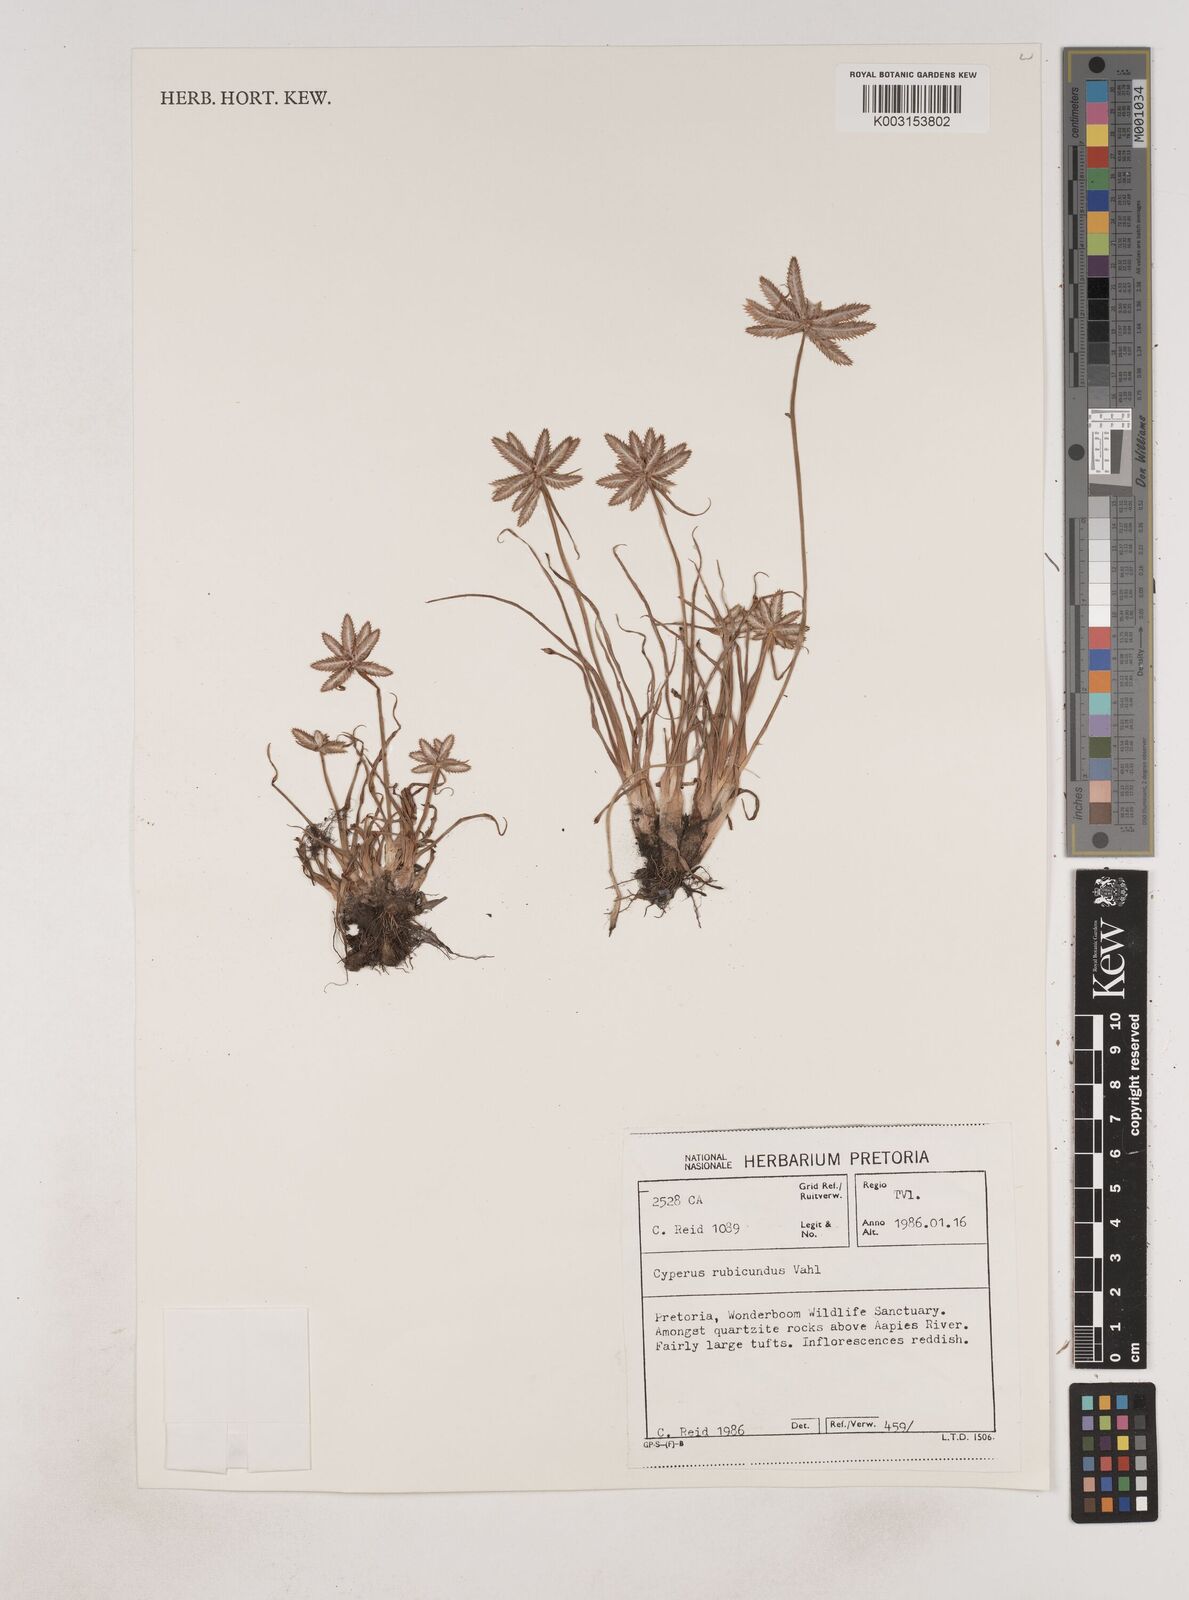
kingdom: Plantae
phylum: Tracheophyta
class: Liliopsida
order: Poales
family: Cyperaceae
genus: Cyperus
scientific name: Cyperus rubicundus
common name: Coco-grass
